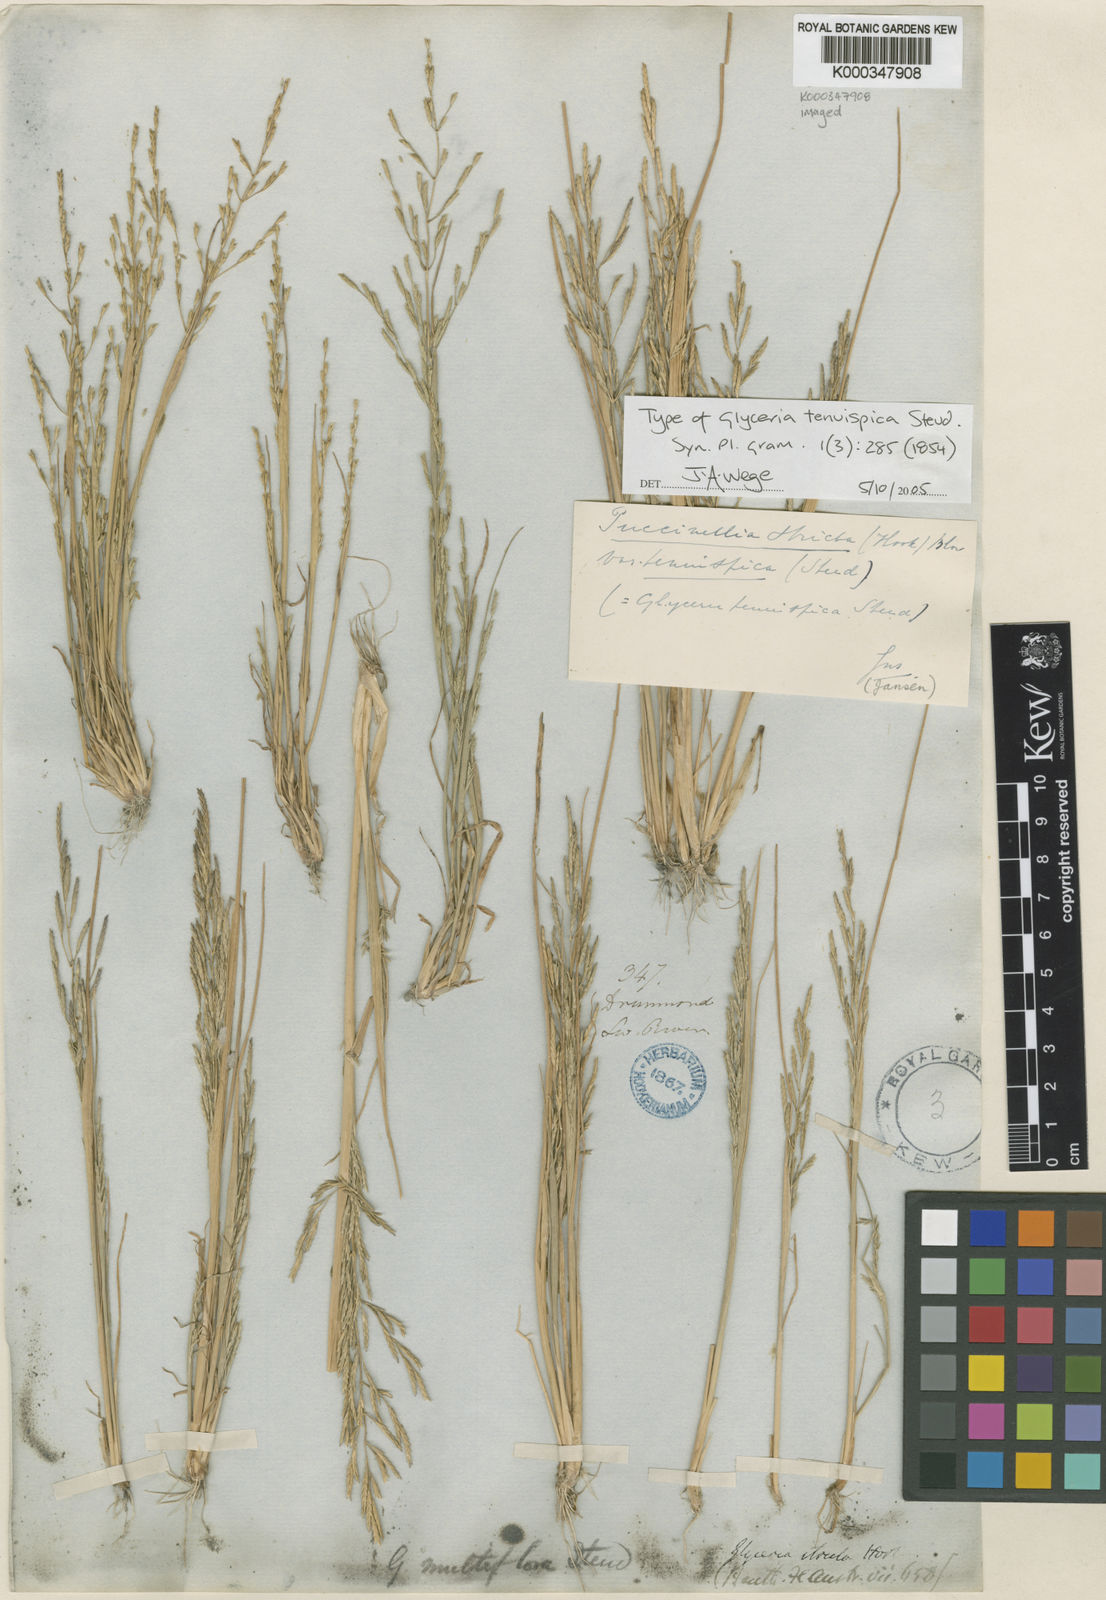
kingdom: Plantae
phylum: Tracheophyta
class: Liliopsida
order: Poales
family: Poaceae
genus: Puccinellia
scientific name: Puccinellia stricta
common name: Australian saltmarsh grass
